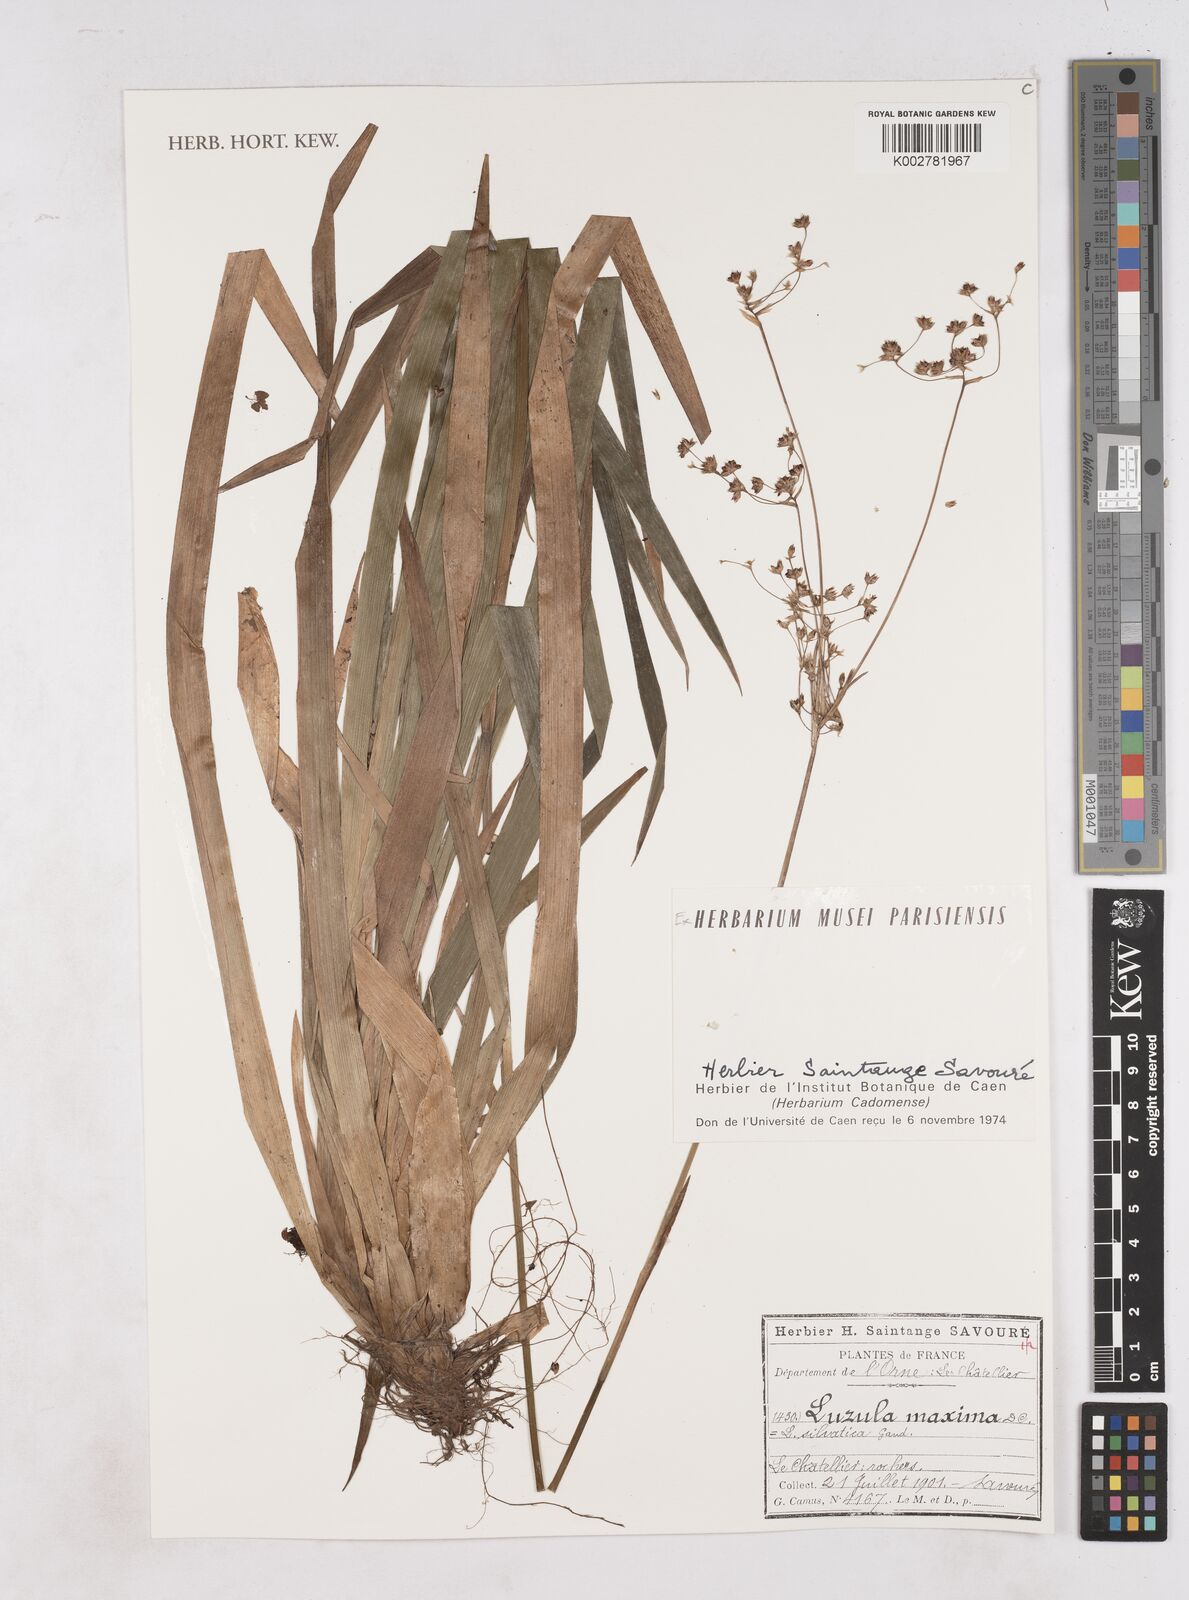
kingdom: Plantae
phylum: Tracheophyta
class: Liliopsida
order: Poales
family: Juncaceae
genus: Luzula
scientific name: Luzula sylvatica
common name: Great wood-rush
